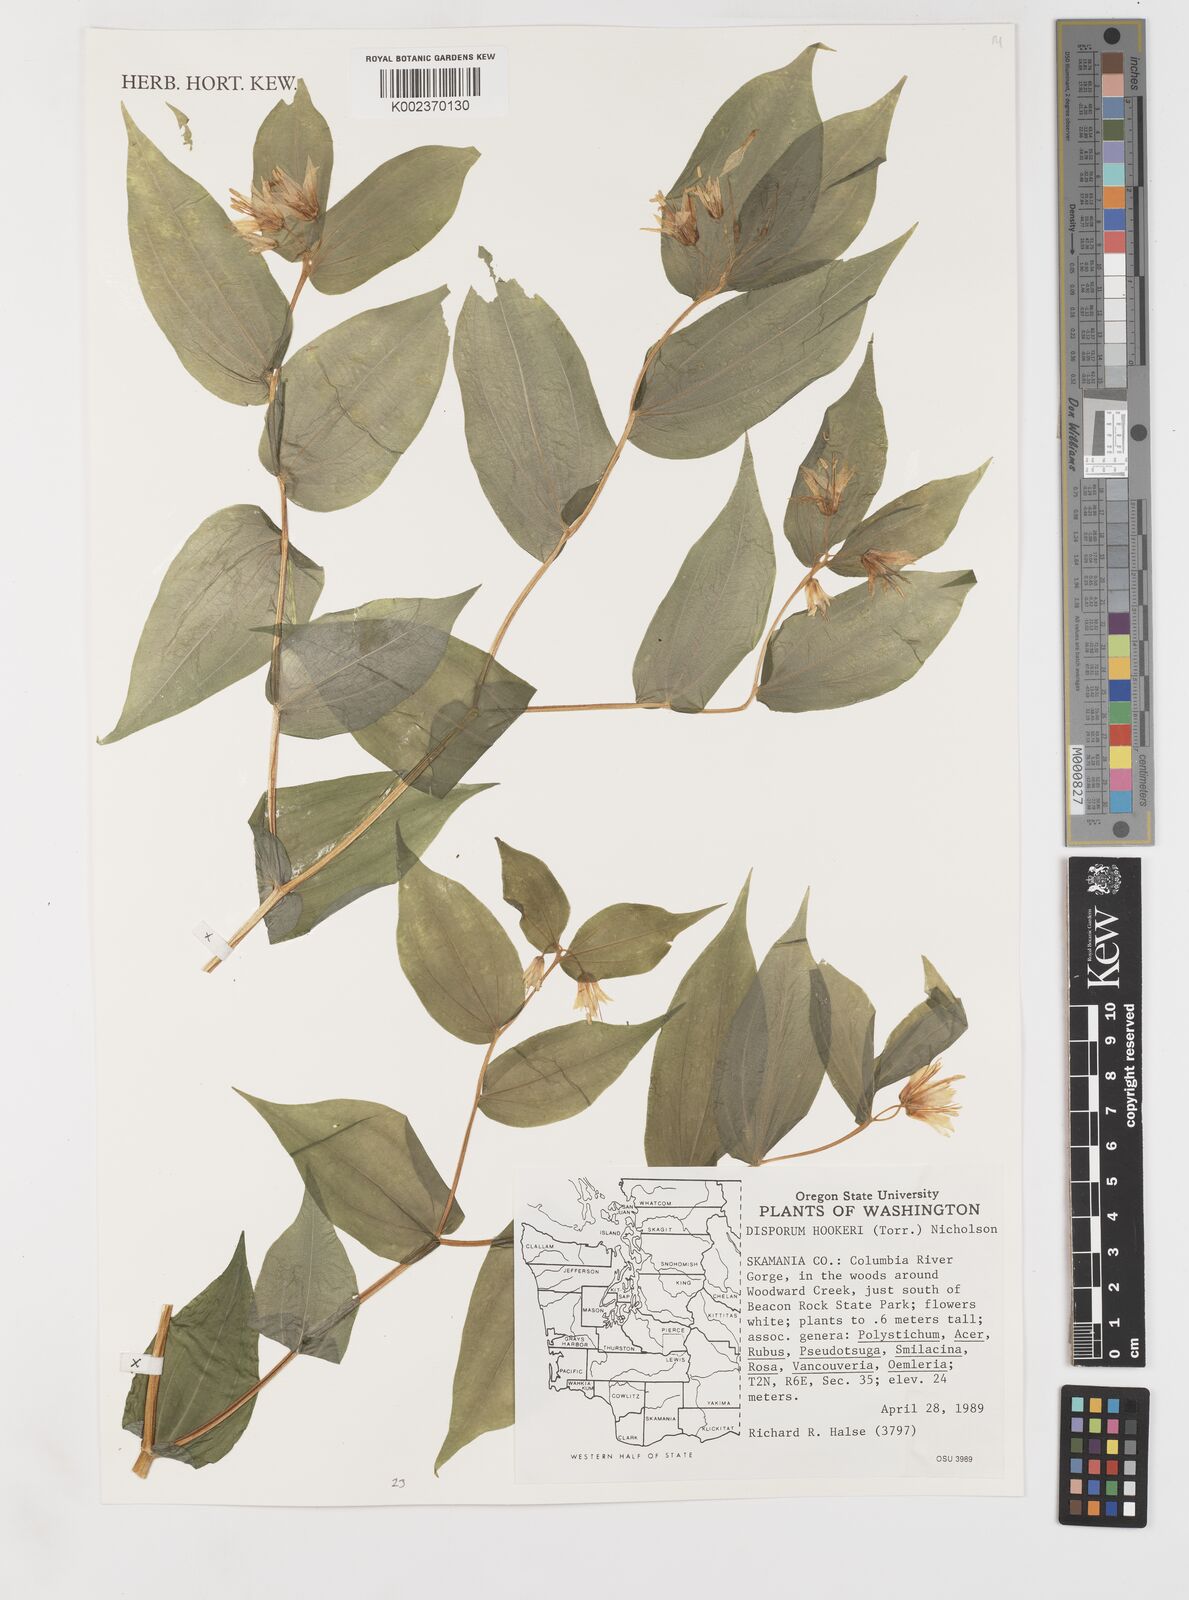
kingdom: Plantae
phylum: Tracheophyta
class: Liliopsida
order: Liliales
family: Liliaceae
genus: Prosartes
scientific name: Prosartes hookeri
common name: Fairy-bells
